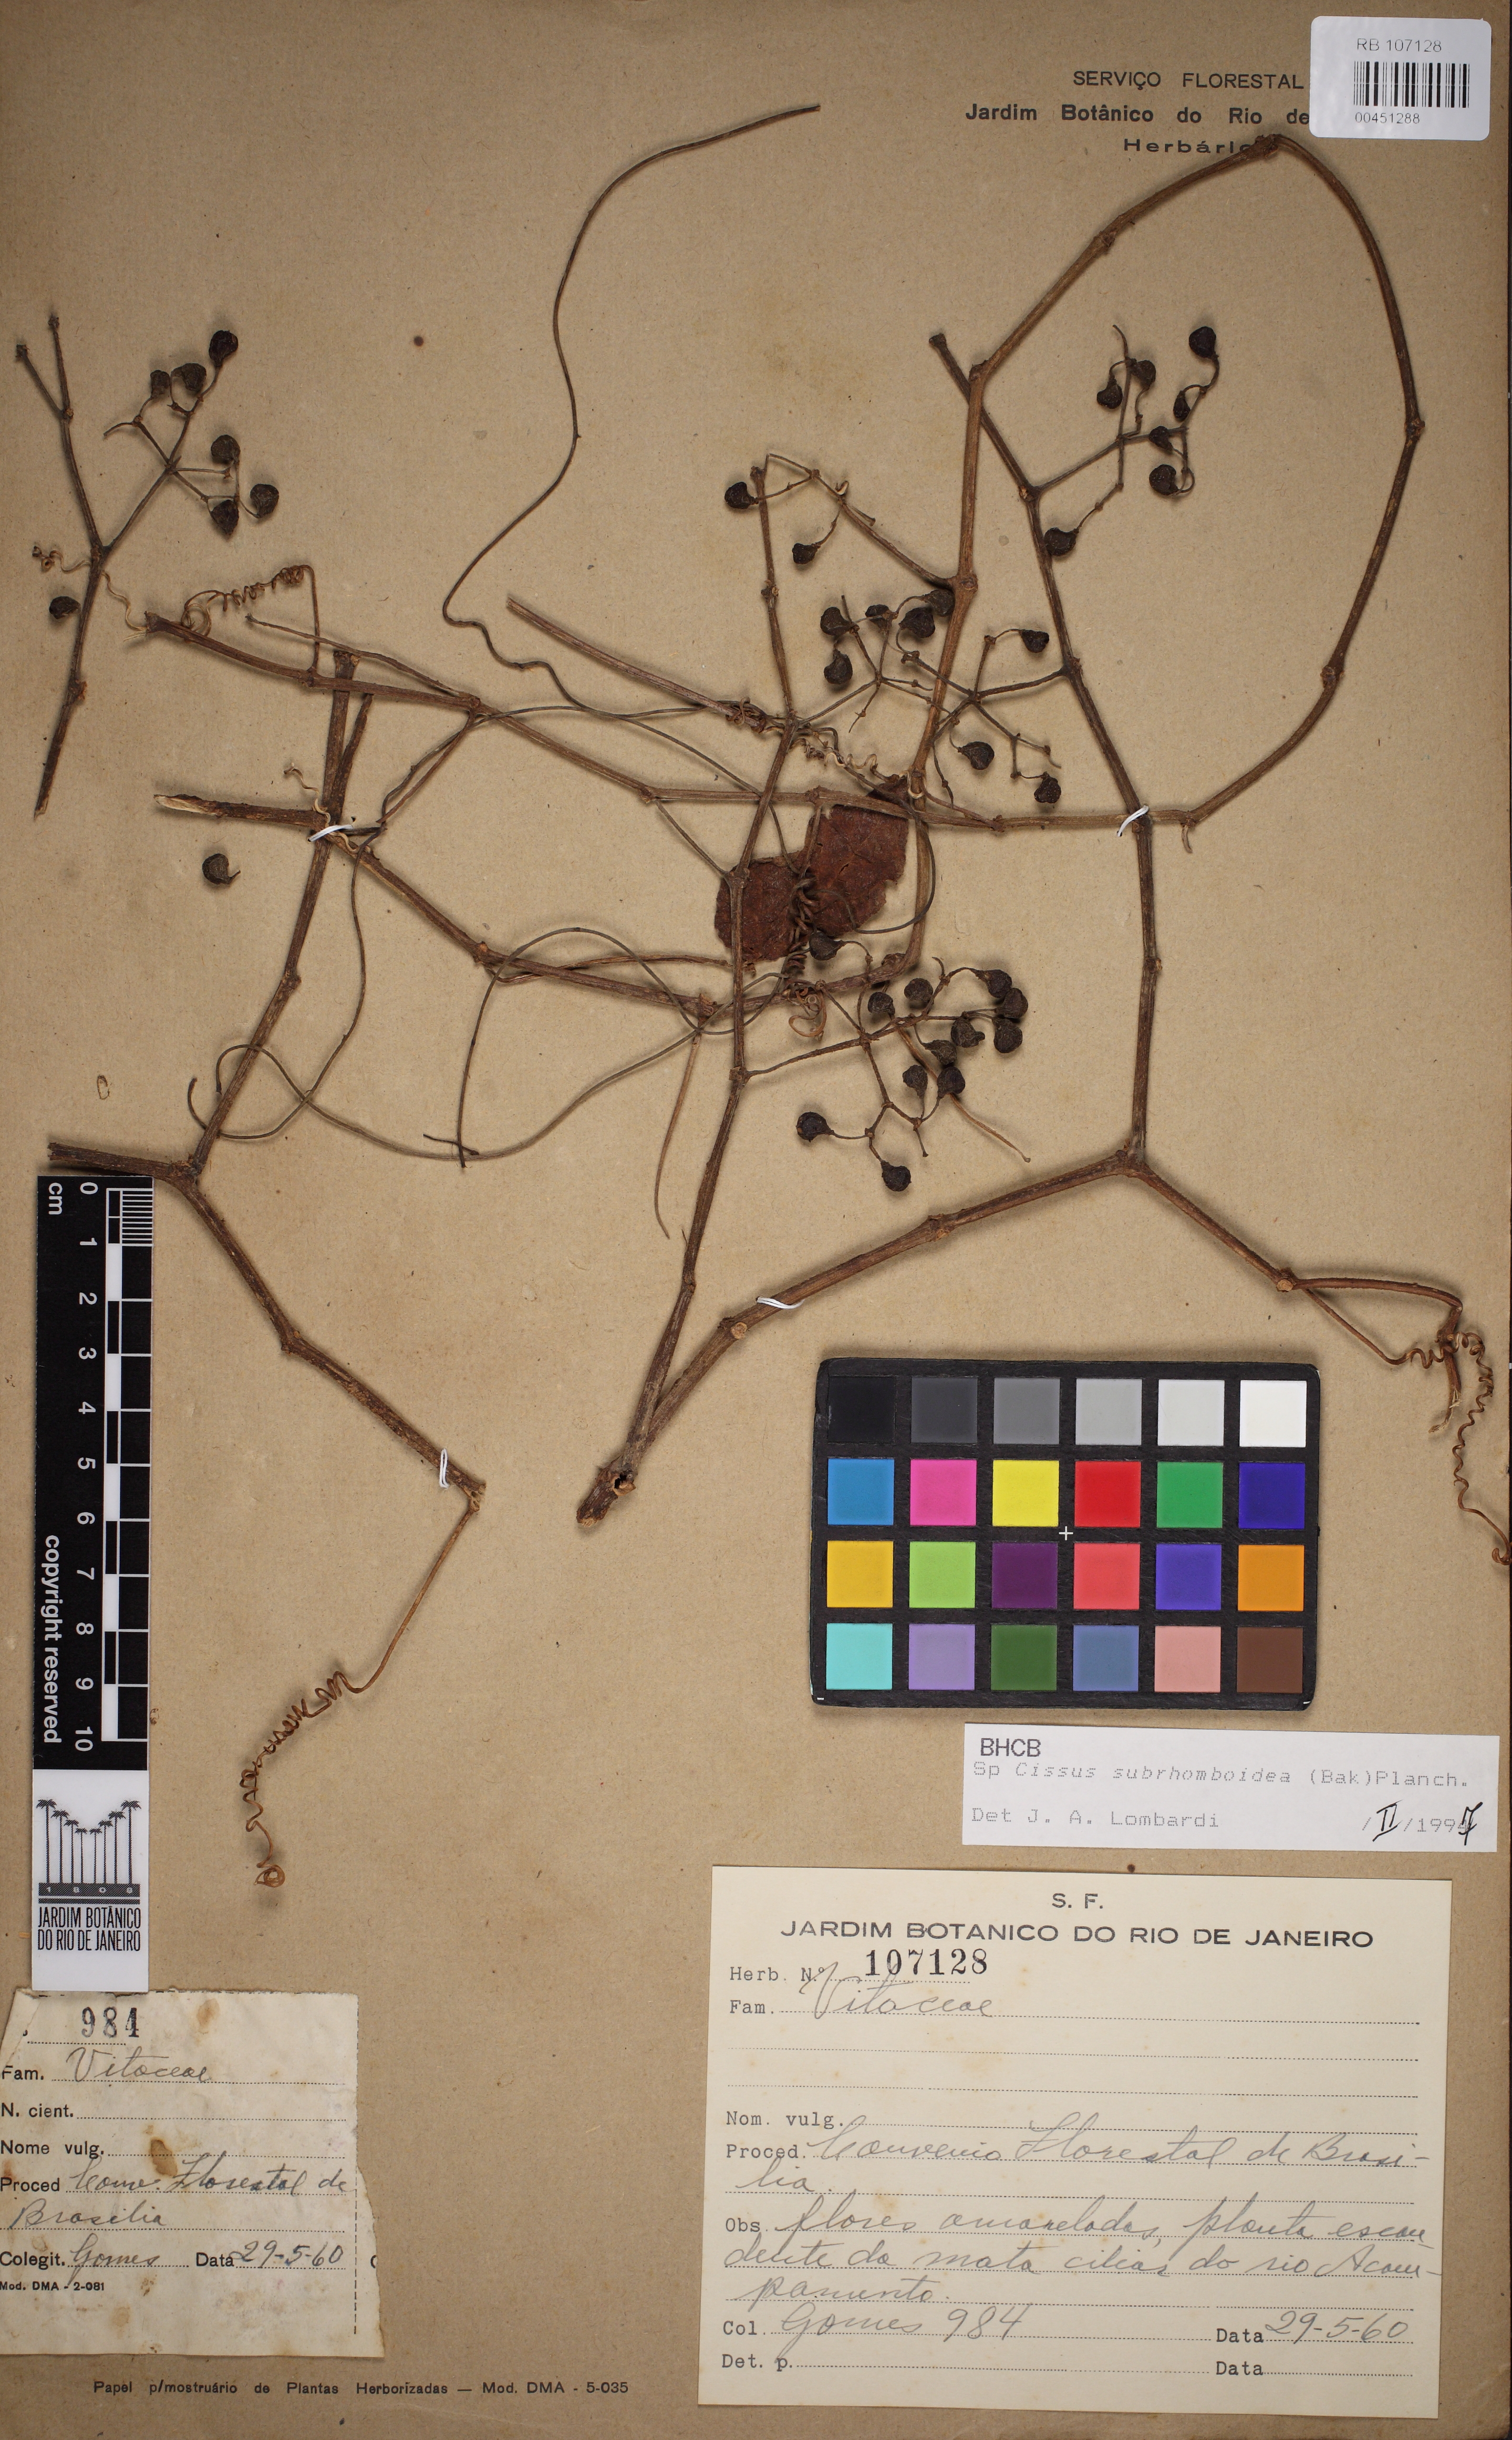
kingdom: Plantae
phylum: Tracheophyta
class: Magnoliopsida
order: Vitales
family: Vitaceae
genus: Cissus
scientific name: Cissus subrhomboidea
